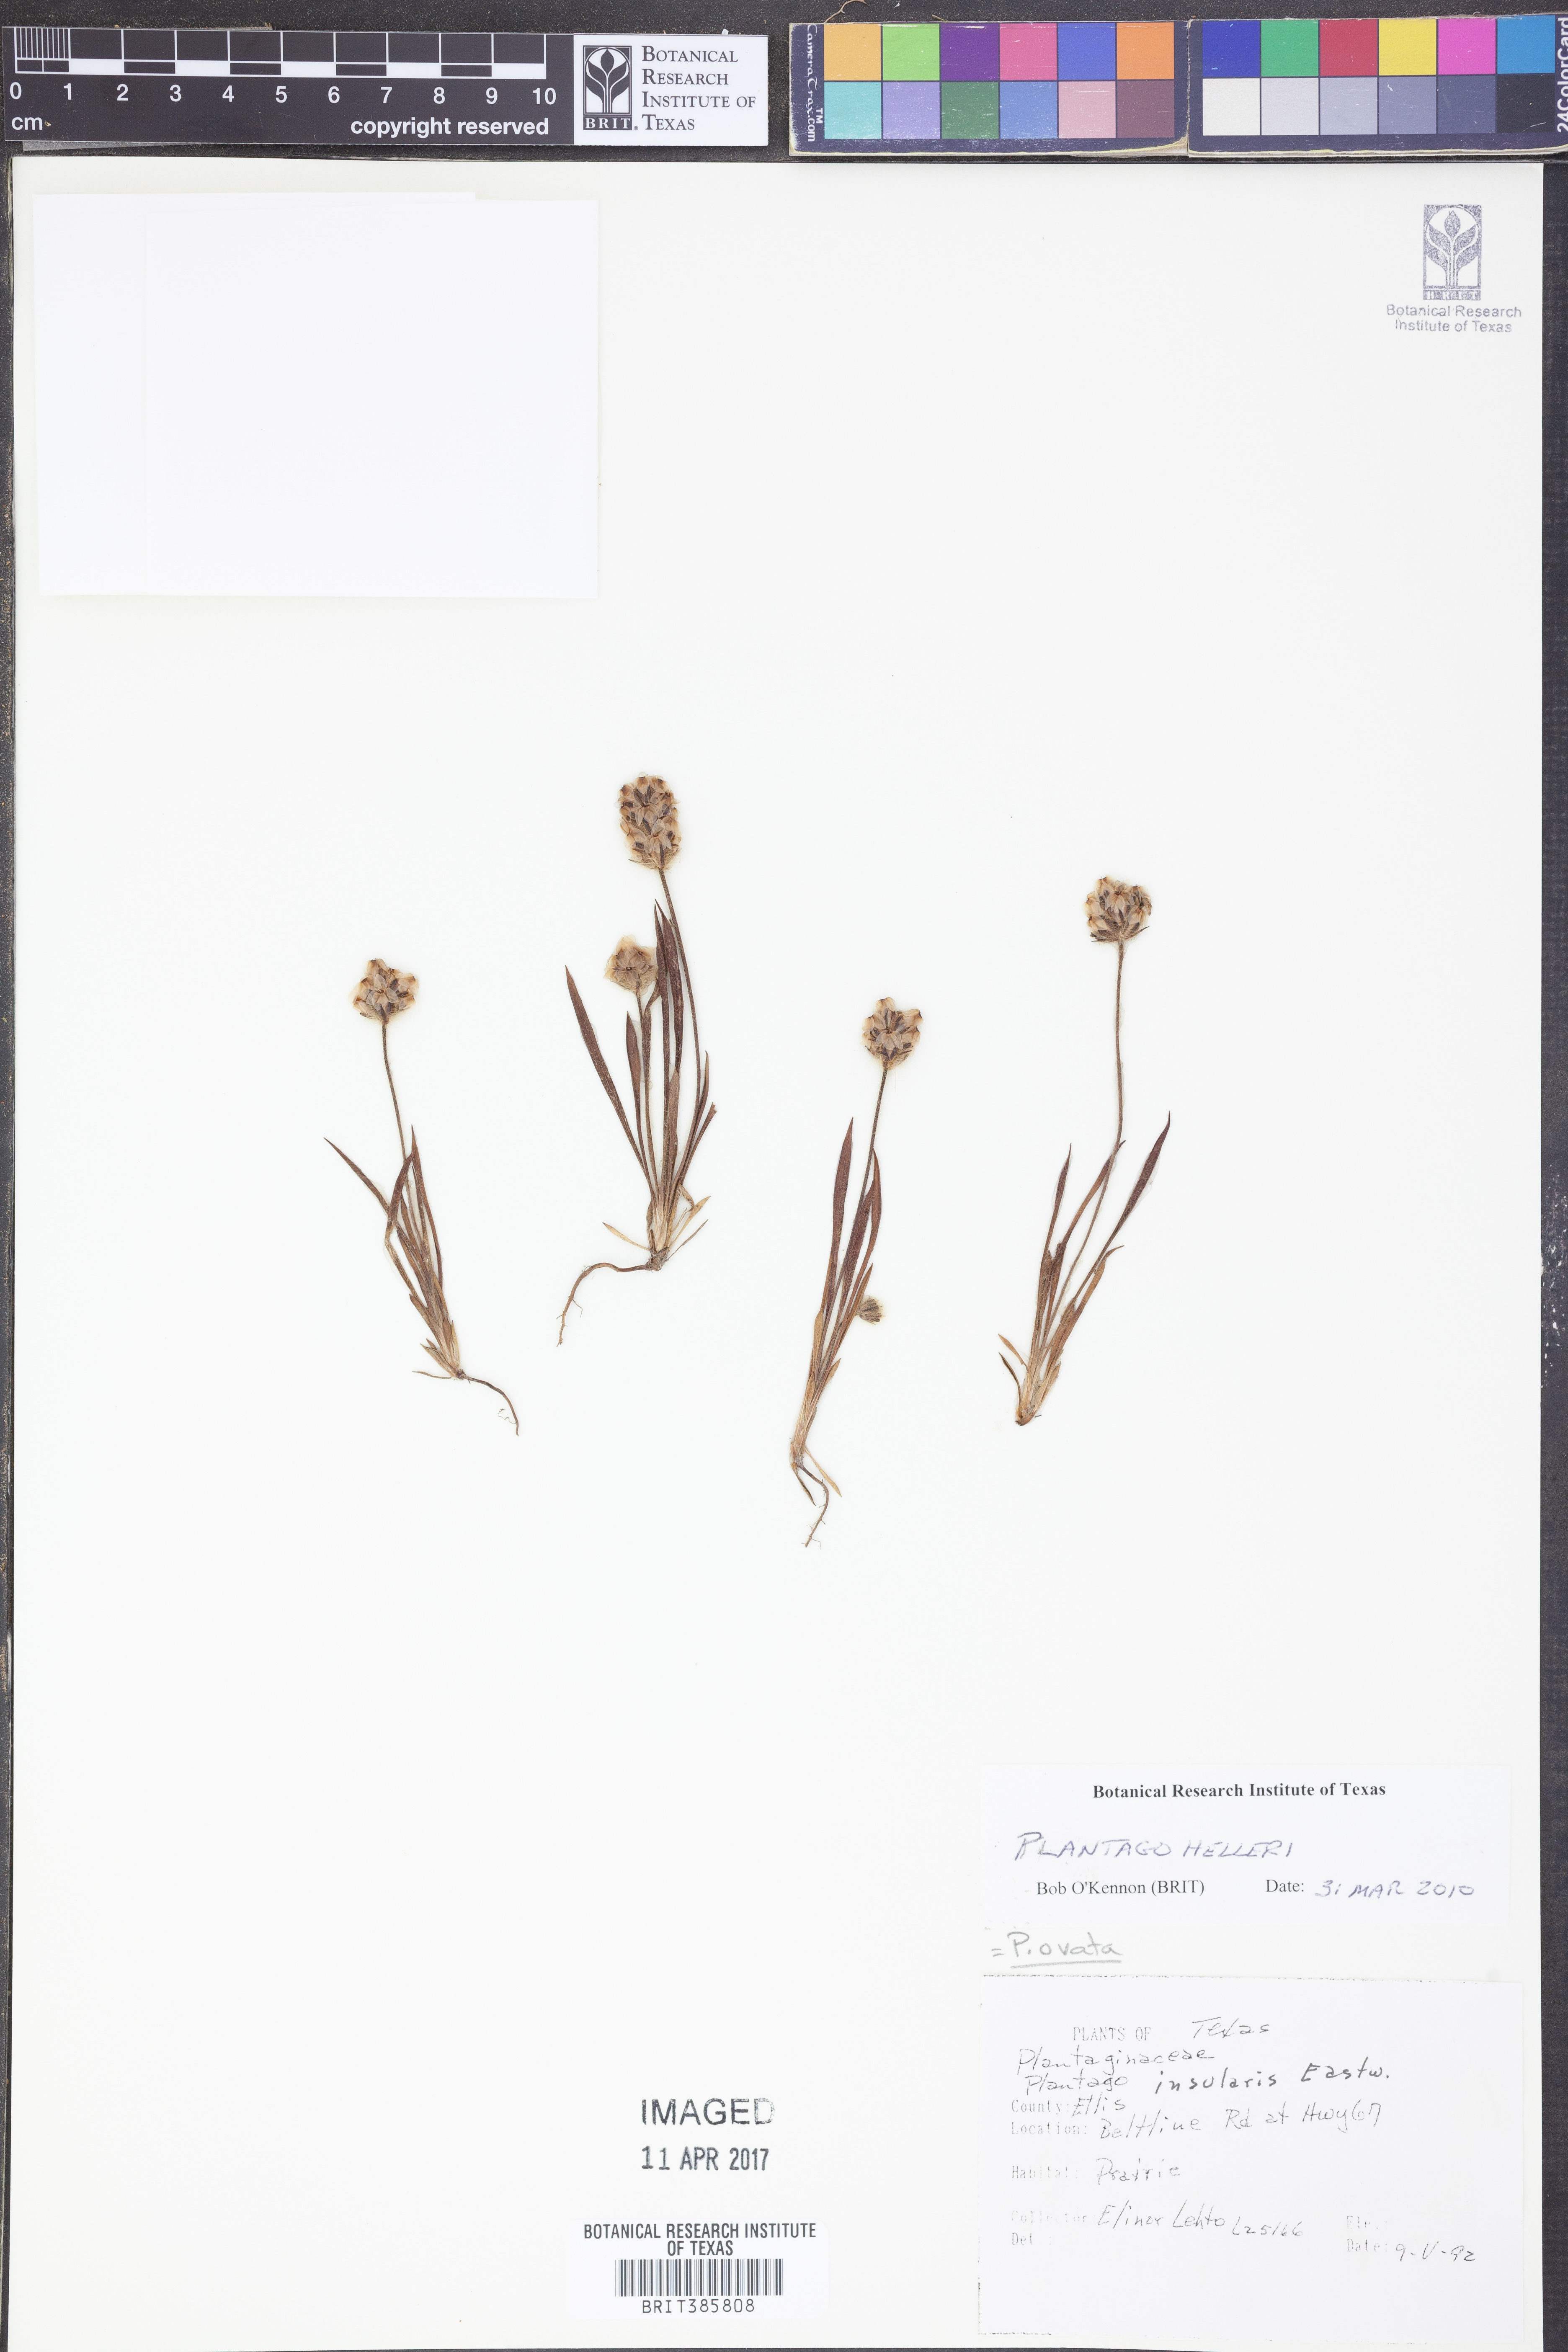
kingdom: Plantae
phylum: Tracheophyta
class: Magnoliopsida
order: Lamiales
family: Plantaginaceae
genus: Plantago
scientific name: Plantago helleri
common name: Heller's plantain
